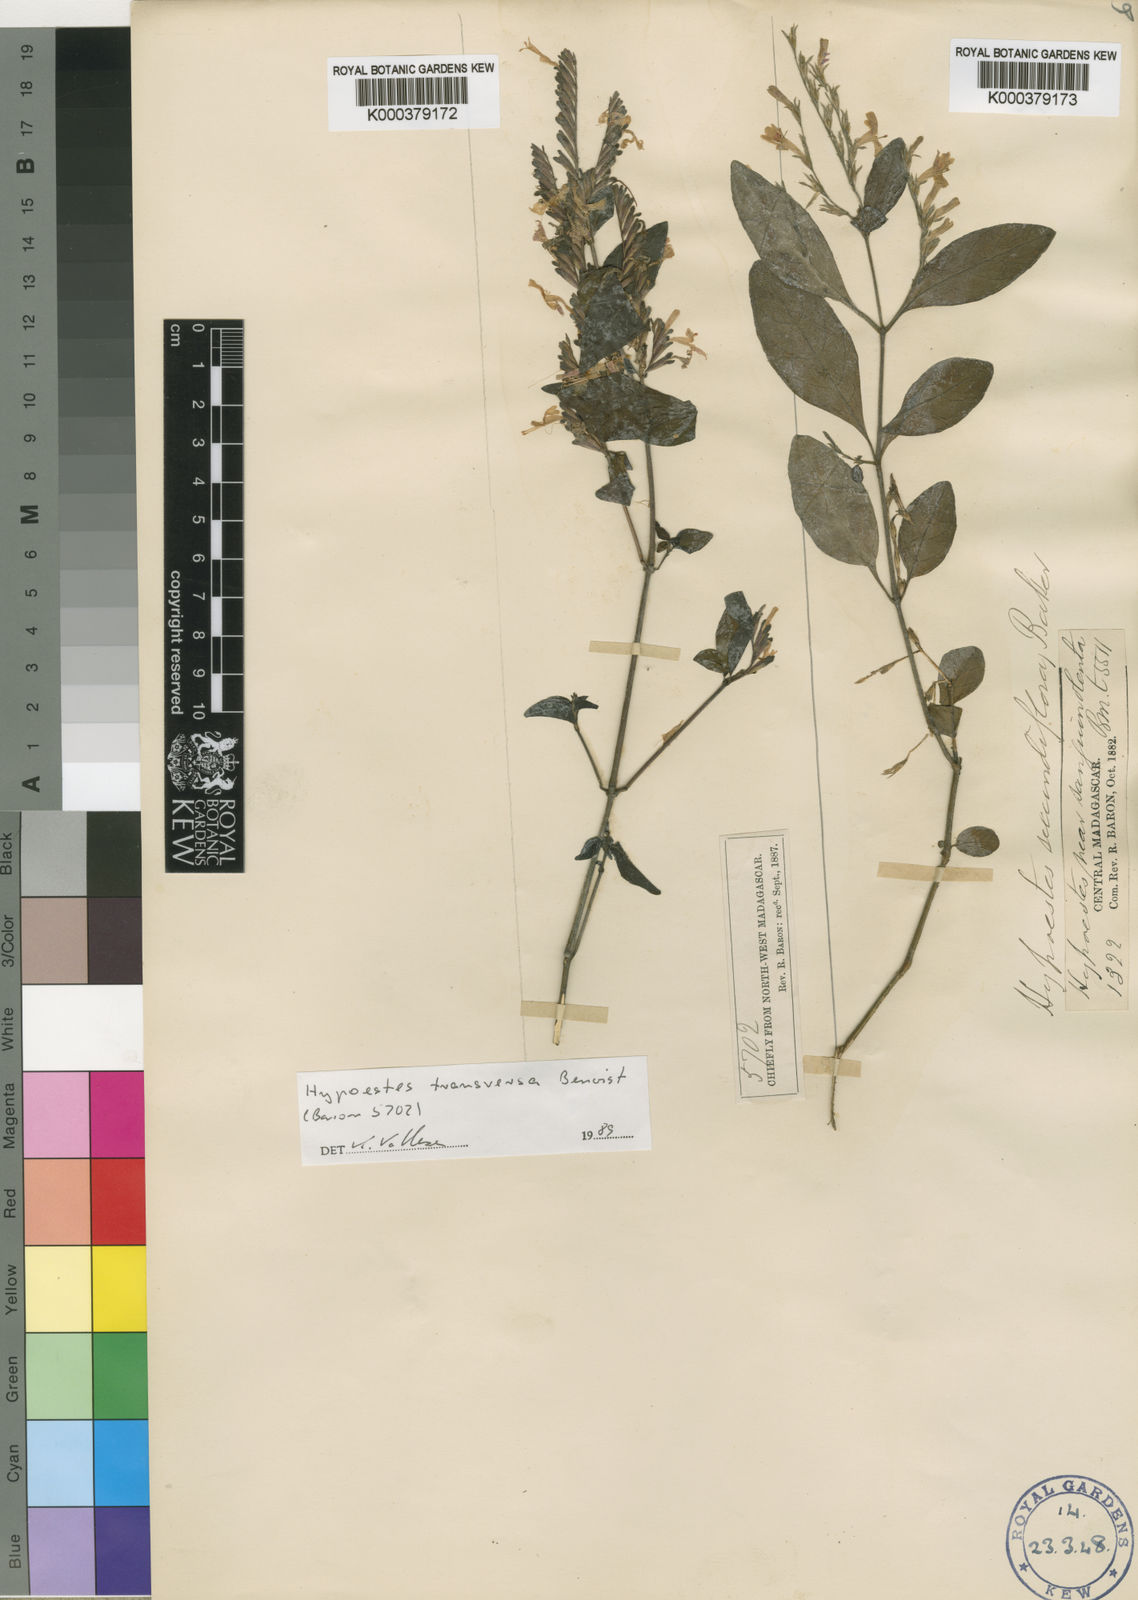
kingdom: Plantae
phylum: Tracheophyta
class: Magnoliopsida
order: Lamiales
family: Acanthaceae
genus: Hypoestes
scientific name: Hypoestes
